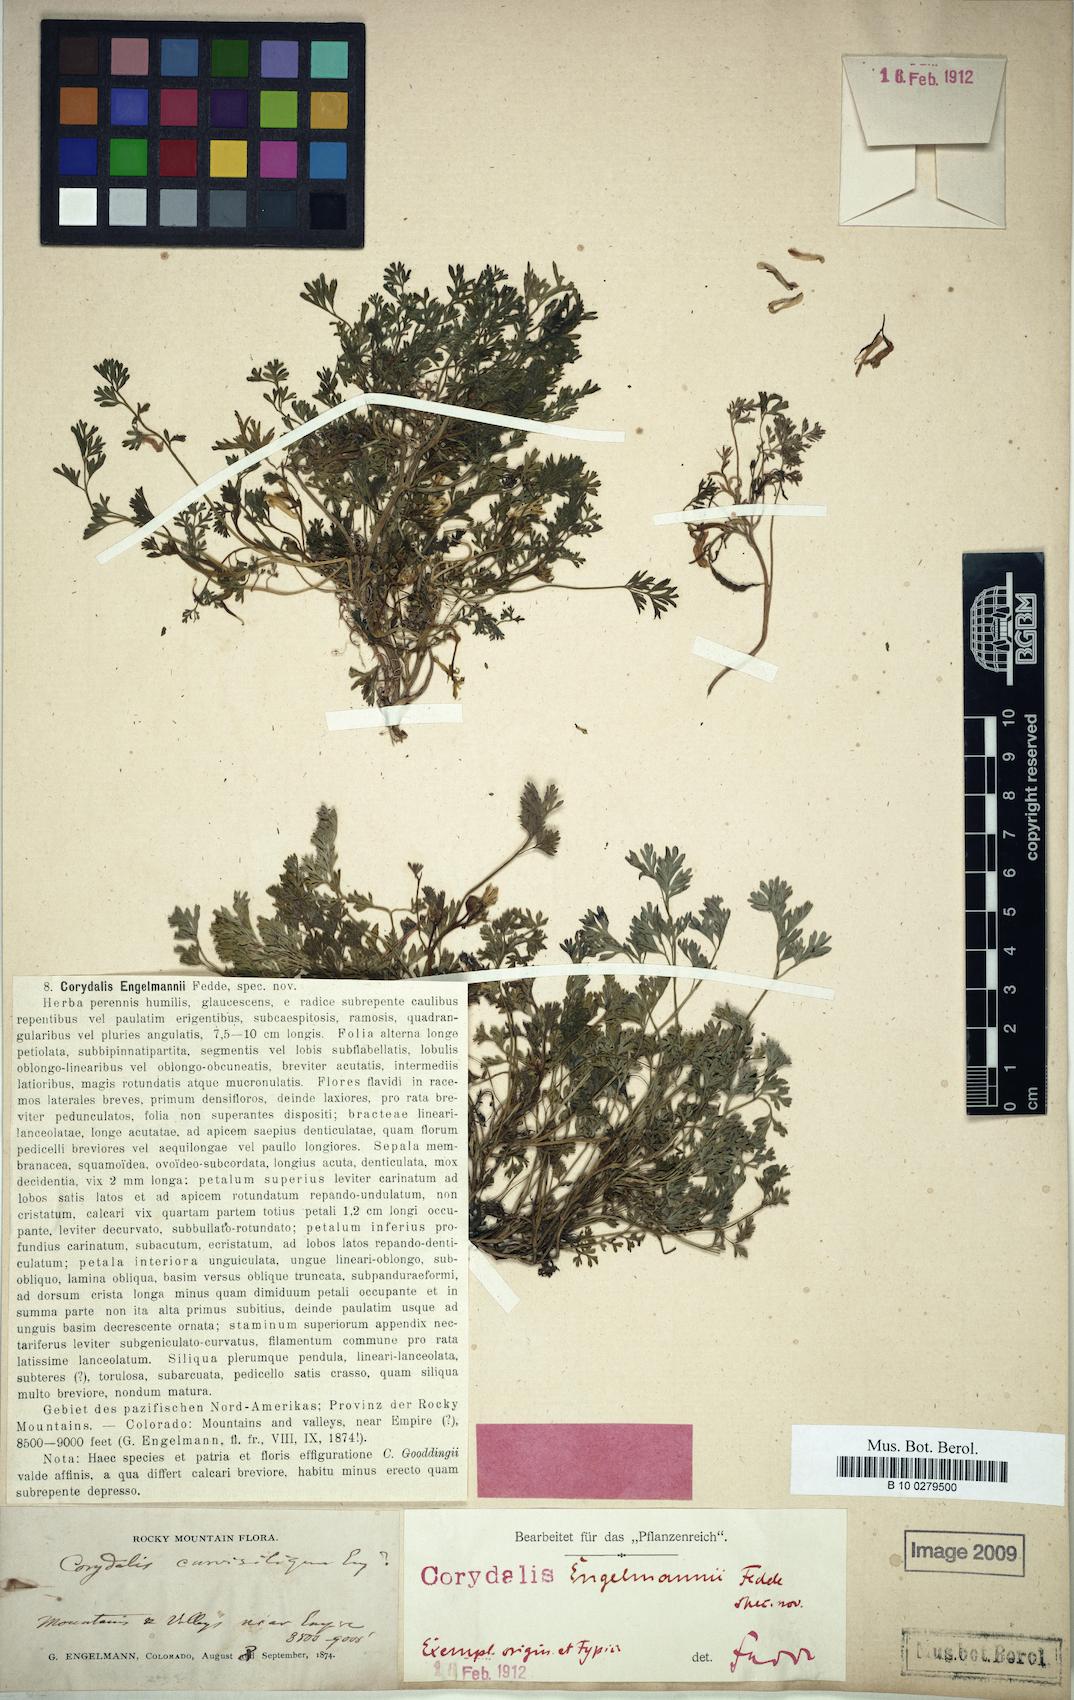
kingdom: Plantae
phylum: Tracheophyta
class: Magnoliopsida
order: Ranunculales
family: Papaveraceae
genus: Corydalis
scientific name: Corydalis aurea
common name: Golden corydalis
